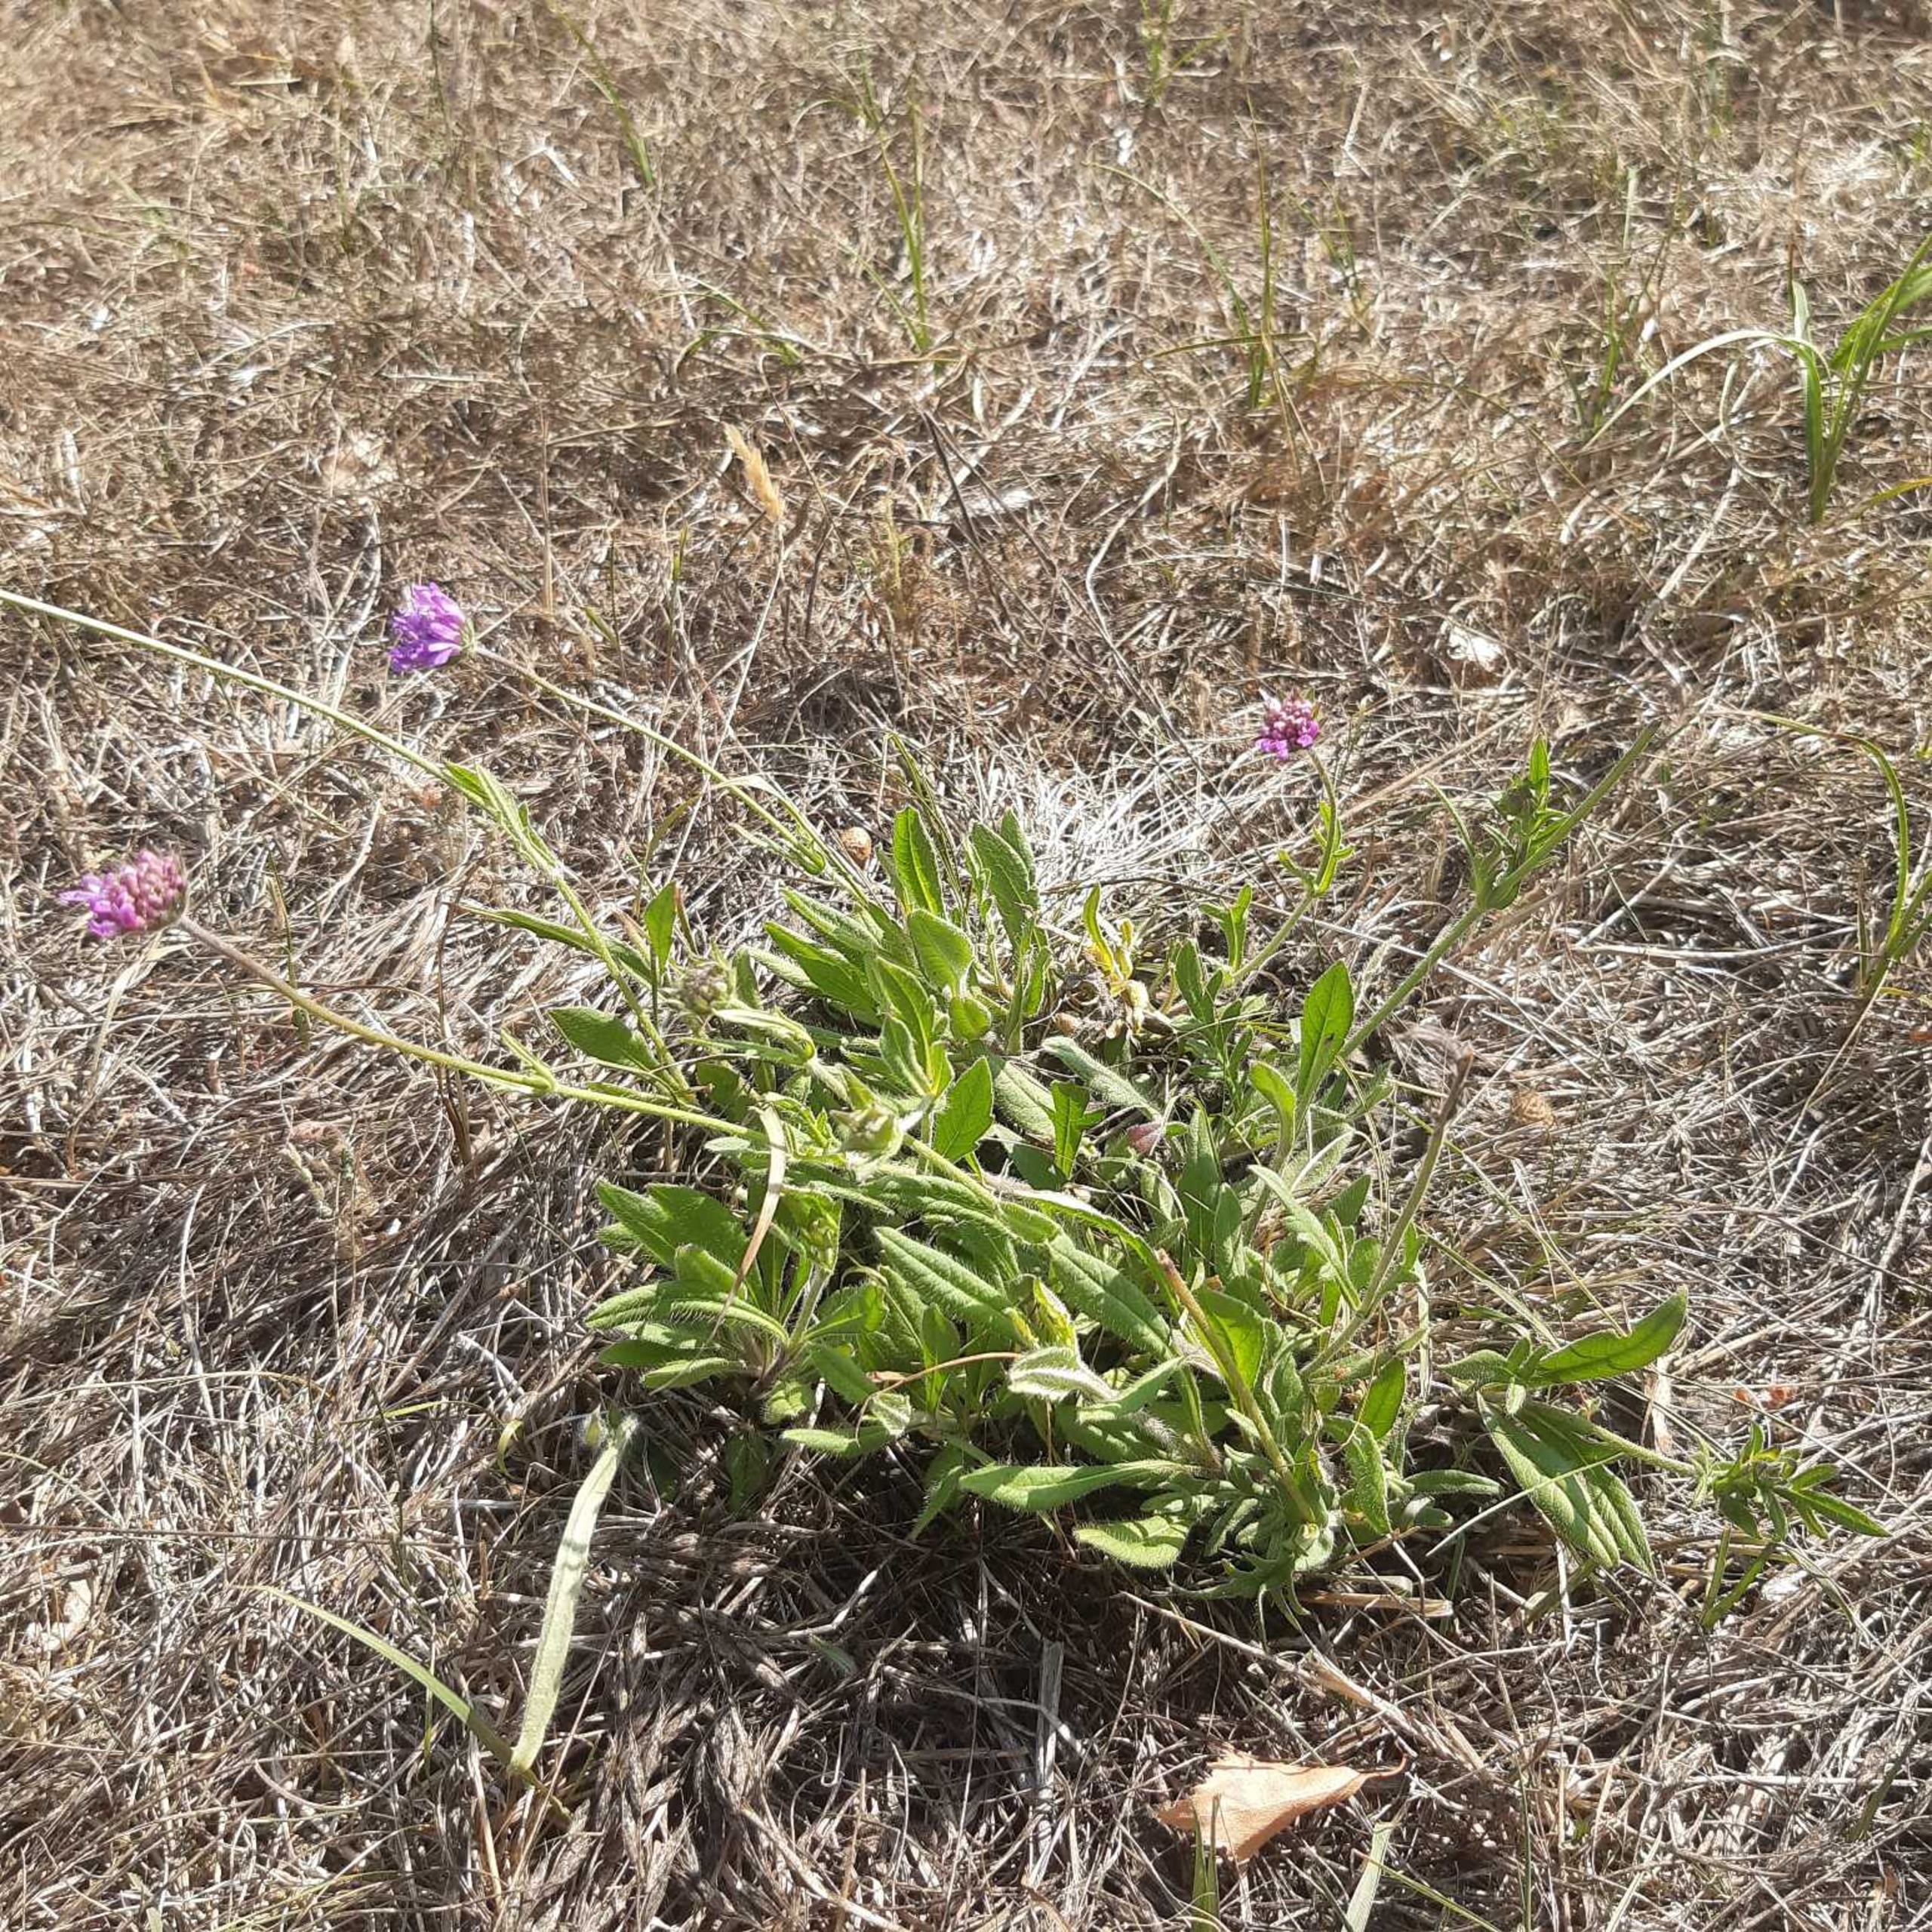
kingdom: Plantae
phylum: Tracheophyta
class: Magnoliopsida
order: Dipsacales
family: Caprifoliaceae
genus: Knautia
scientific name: Knautia arvensis
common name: Blåhat
